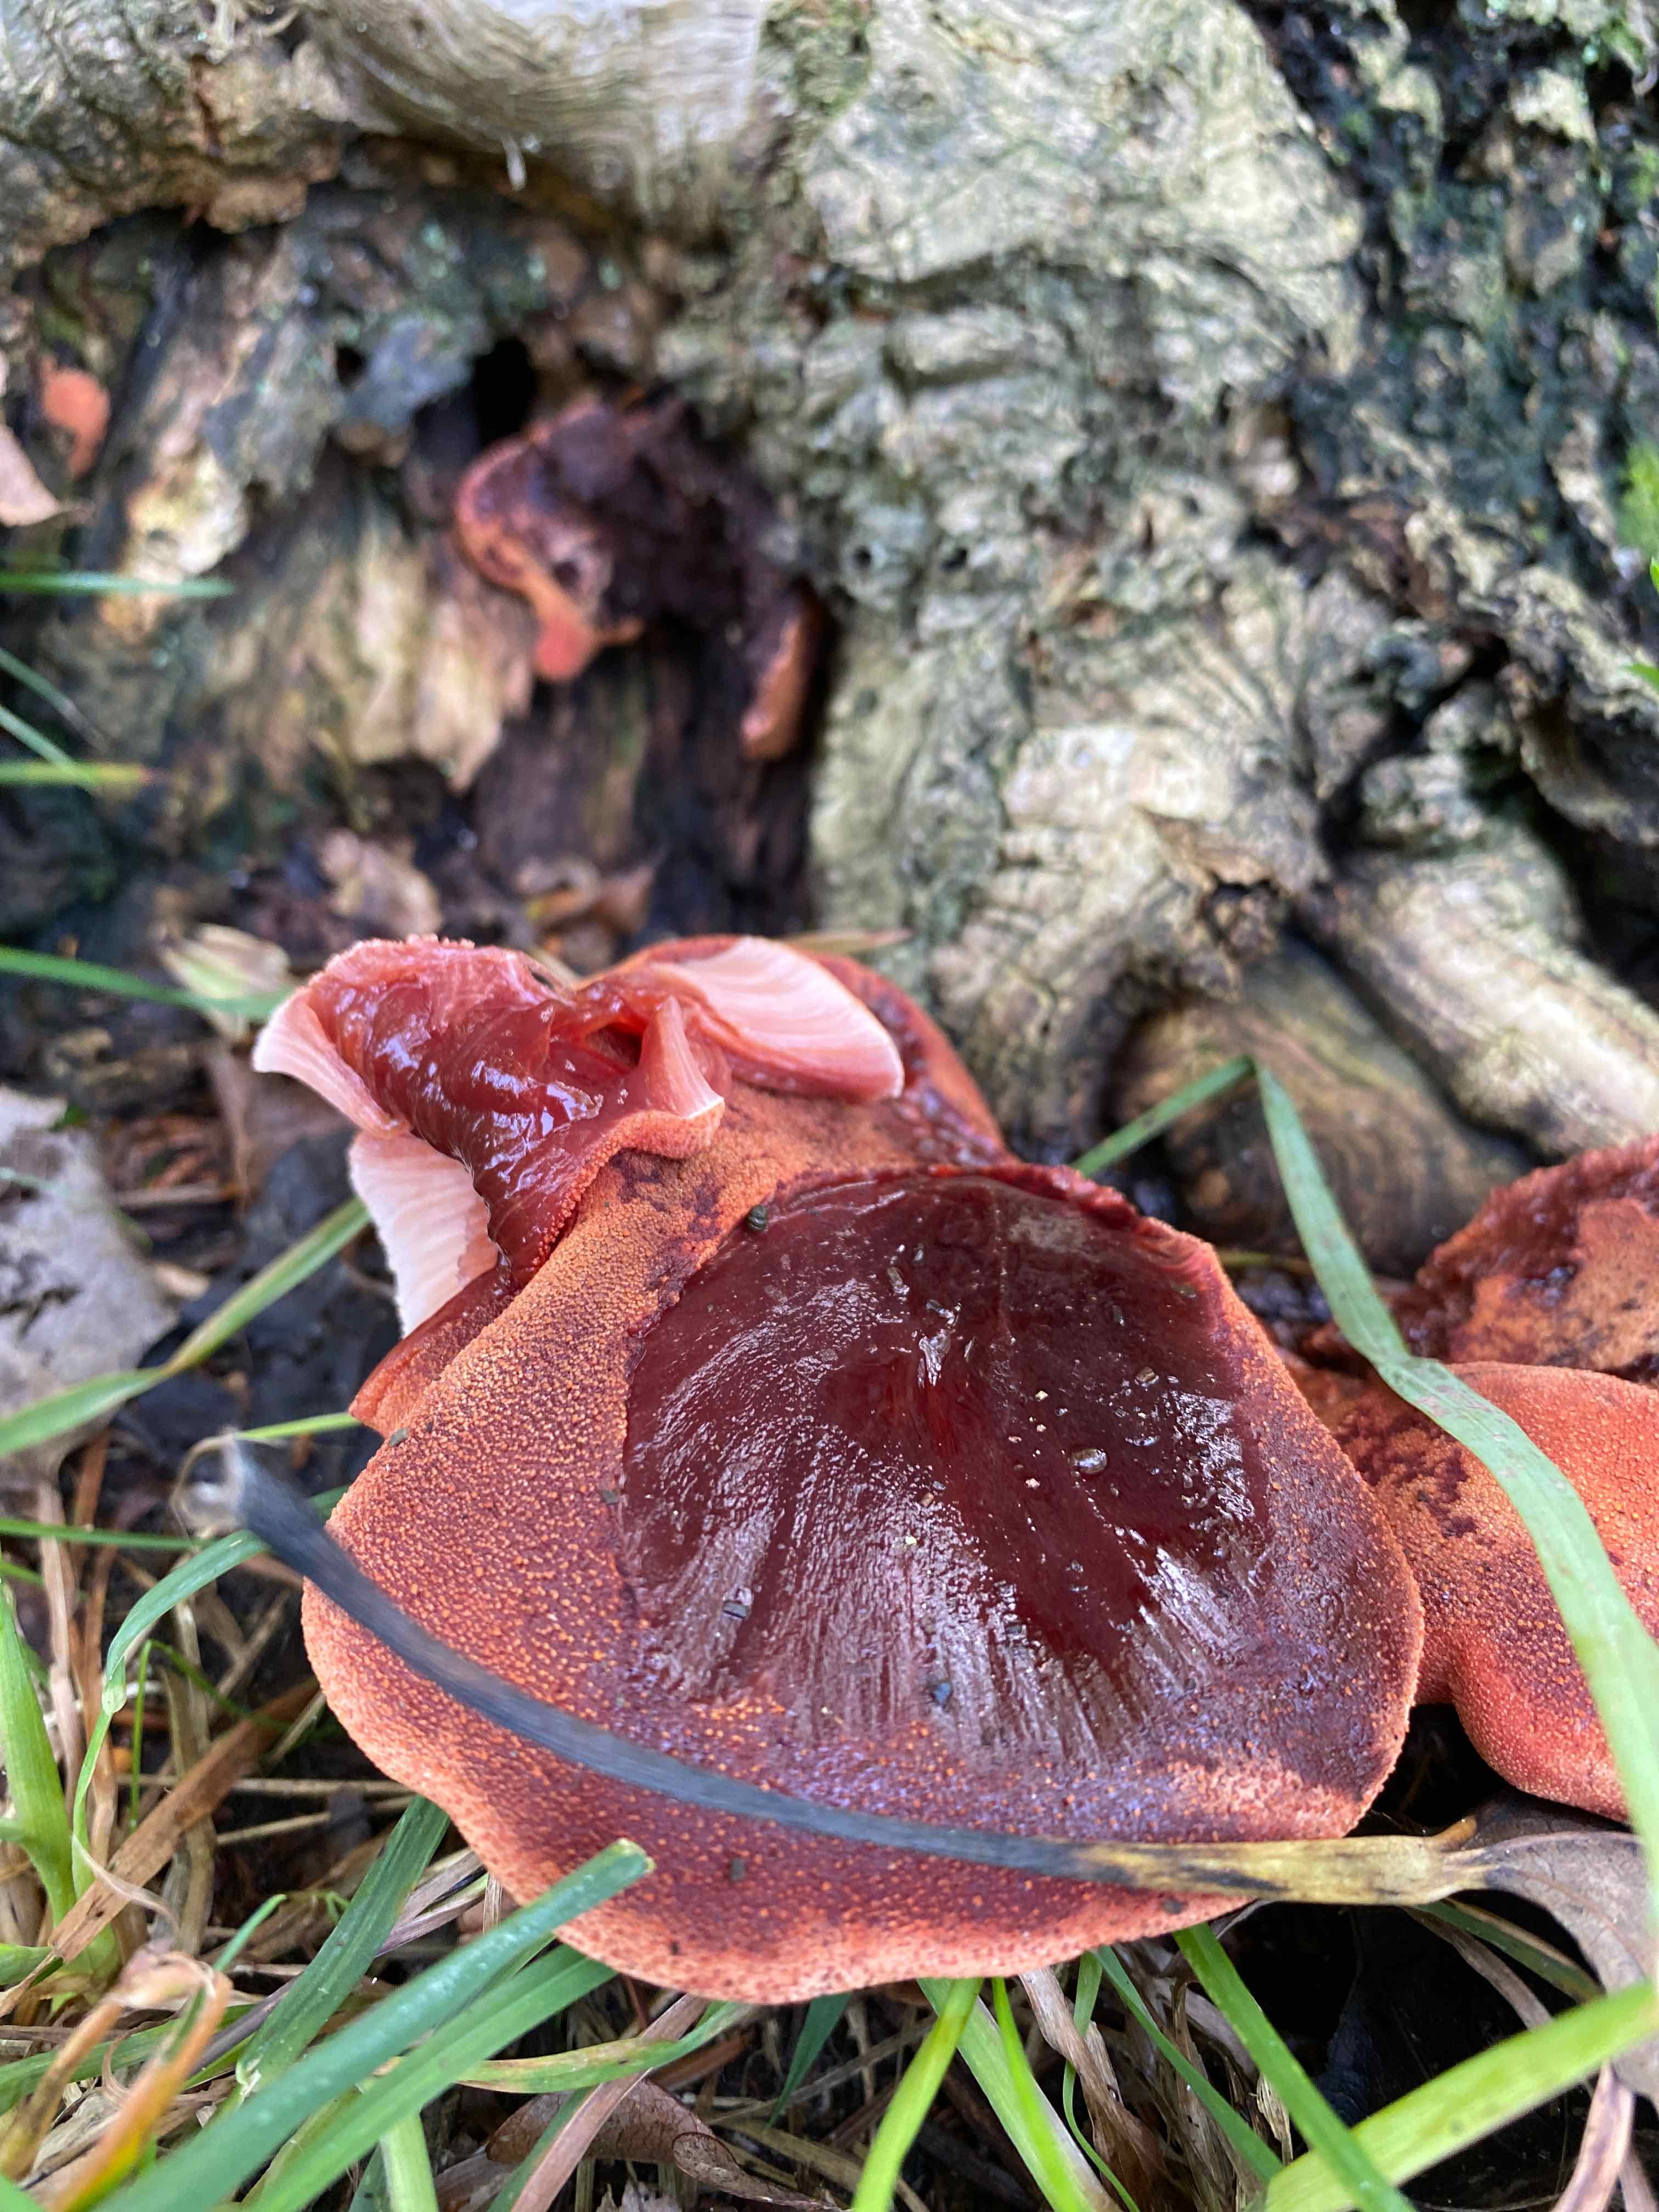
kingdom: Fungi
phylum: Basidiomycota
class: Agaricomycetes
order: Agaricales
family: Fistulinaceae
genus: Fistulina
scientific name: Fistulina hepatica
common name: oksetunge
